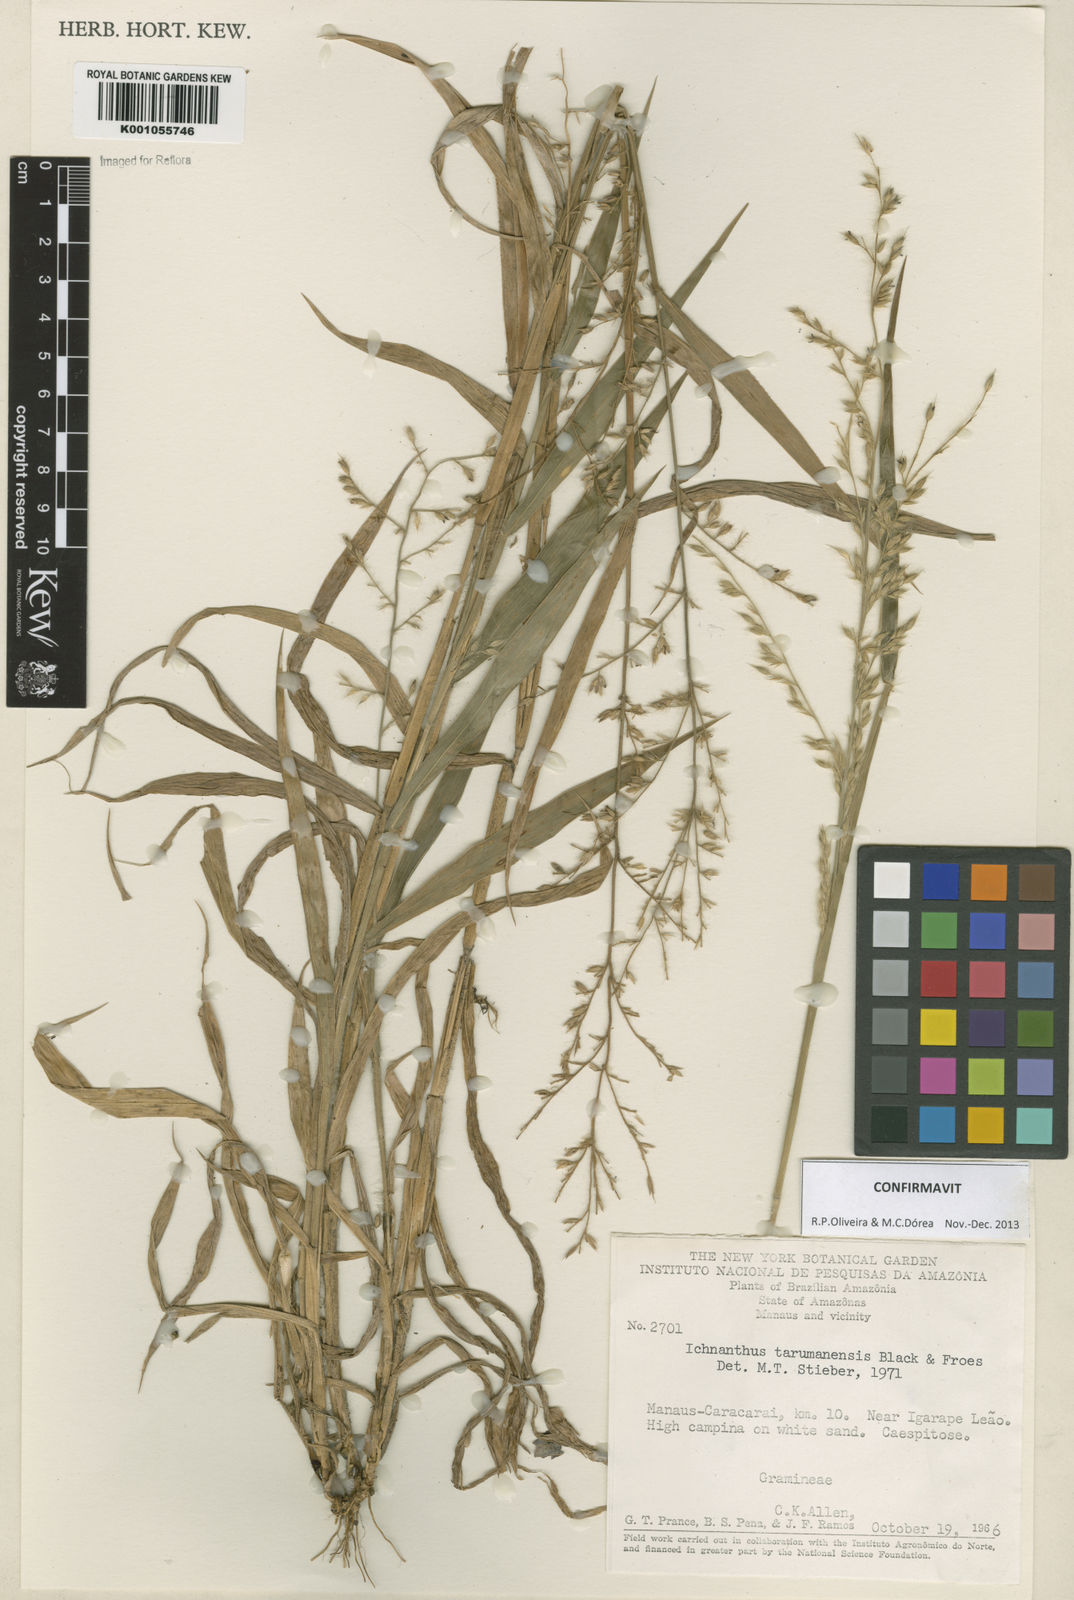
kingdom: Plantae
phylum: Tracheophyta
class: Liliopsida
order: Poales
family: Poaceae
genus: Ichnanthus
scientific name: Ichnanthus
